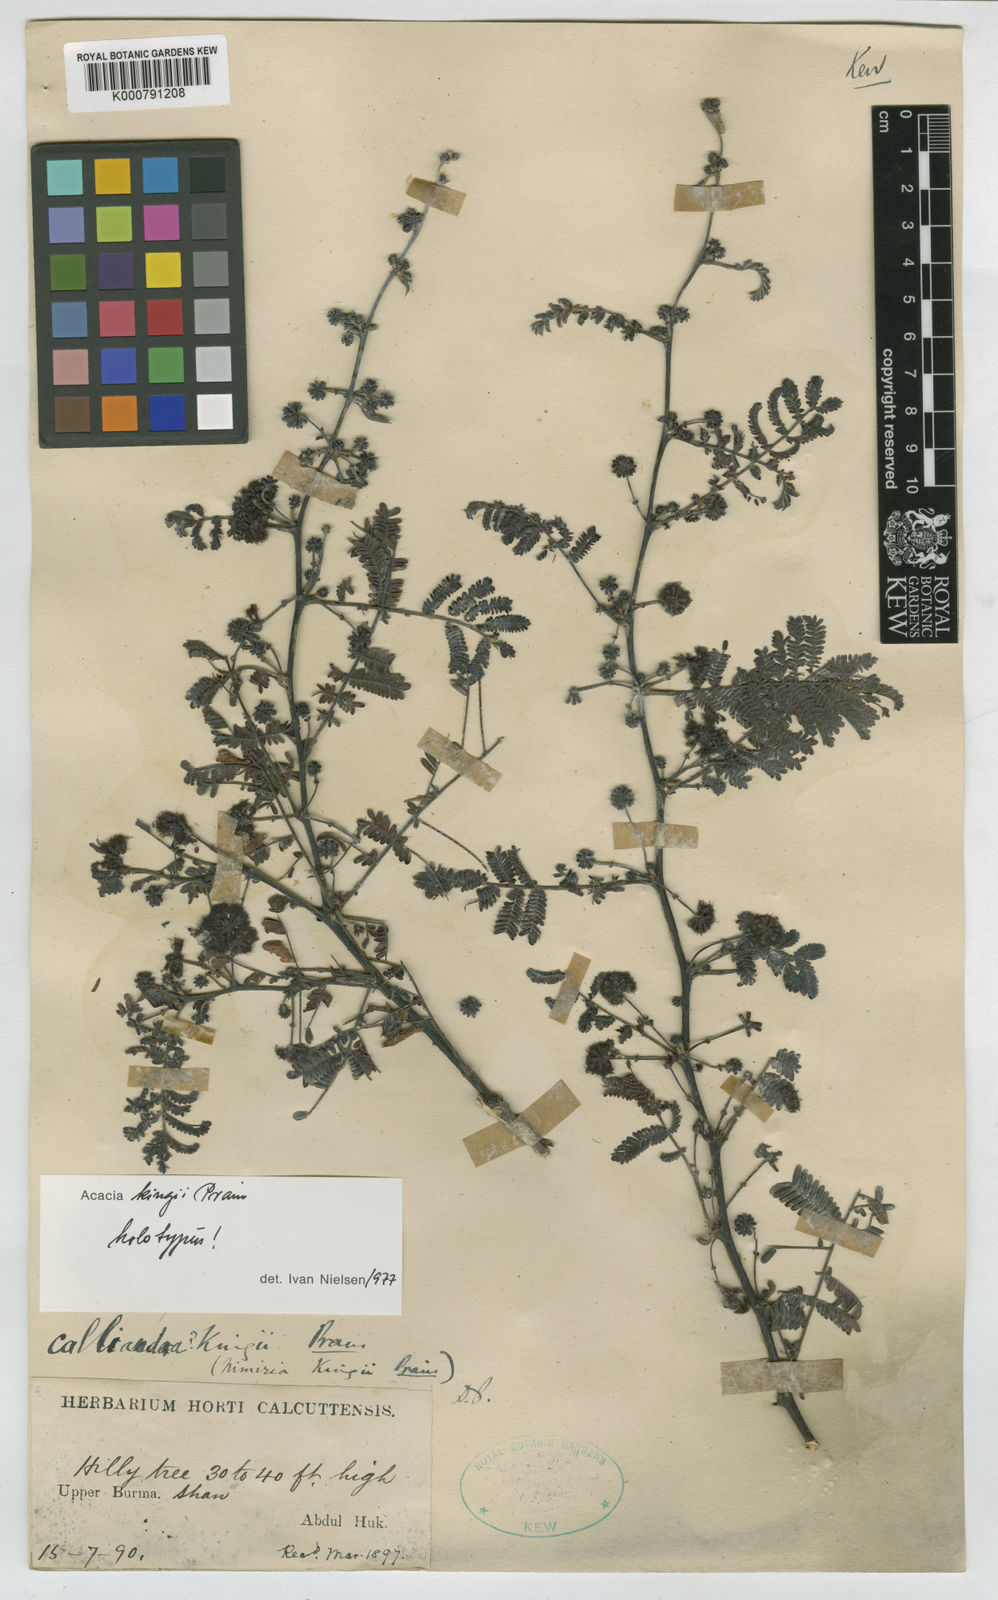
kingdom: Plantae
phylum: Tracheophyta
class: Magnoliopsida
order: Fabales
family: Fabaceae
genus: Vachellia
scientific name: Vachellia kingii
